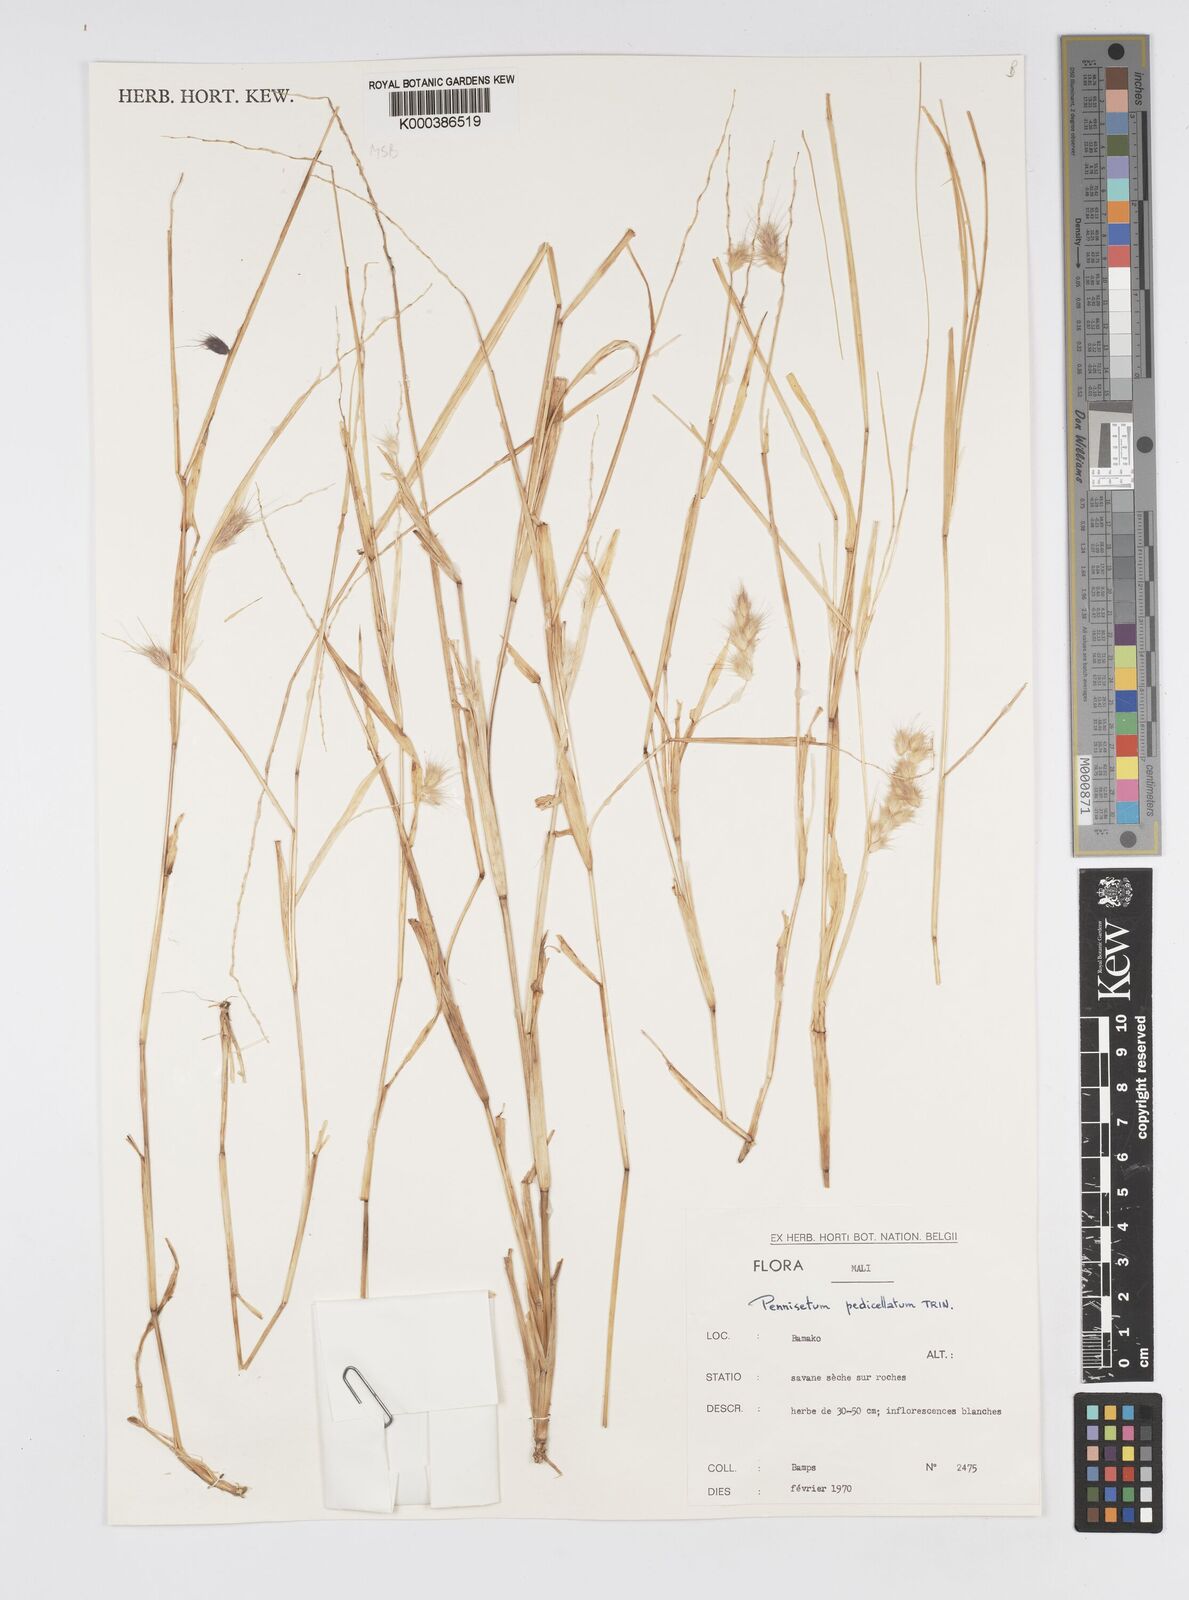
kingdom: Plantae
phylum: Tracheophyta
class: Liliopsida
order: Poales
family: Poaceae
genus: Cenchrus
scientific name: Cenchrus pedicellatus
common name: Hairy fountain grass
